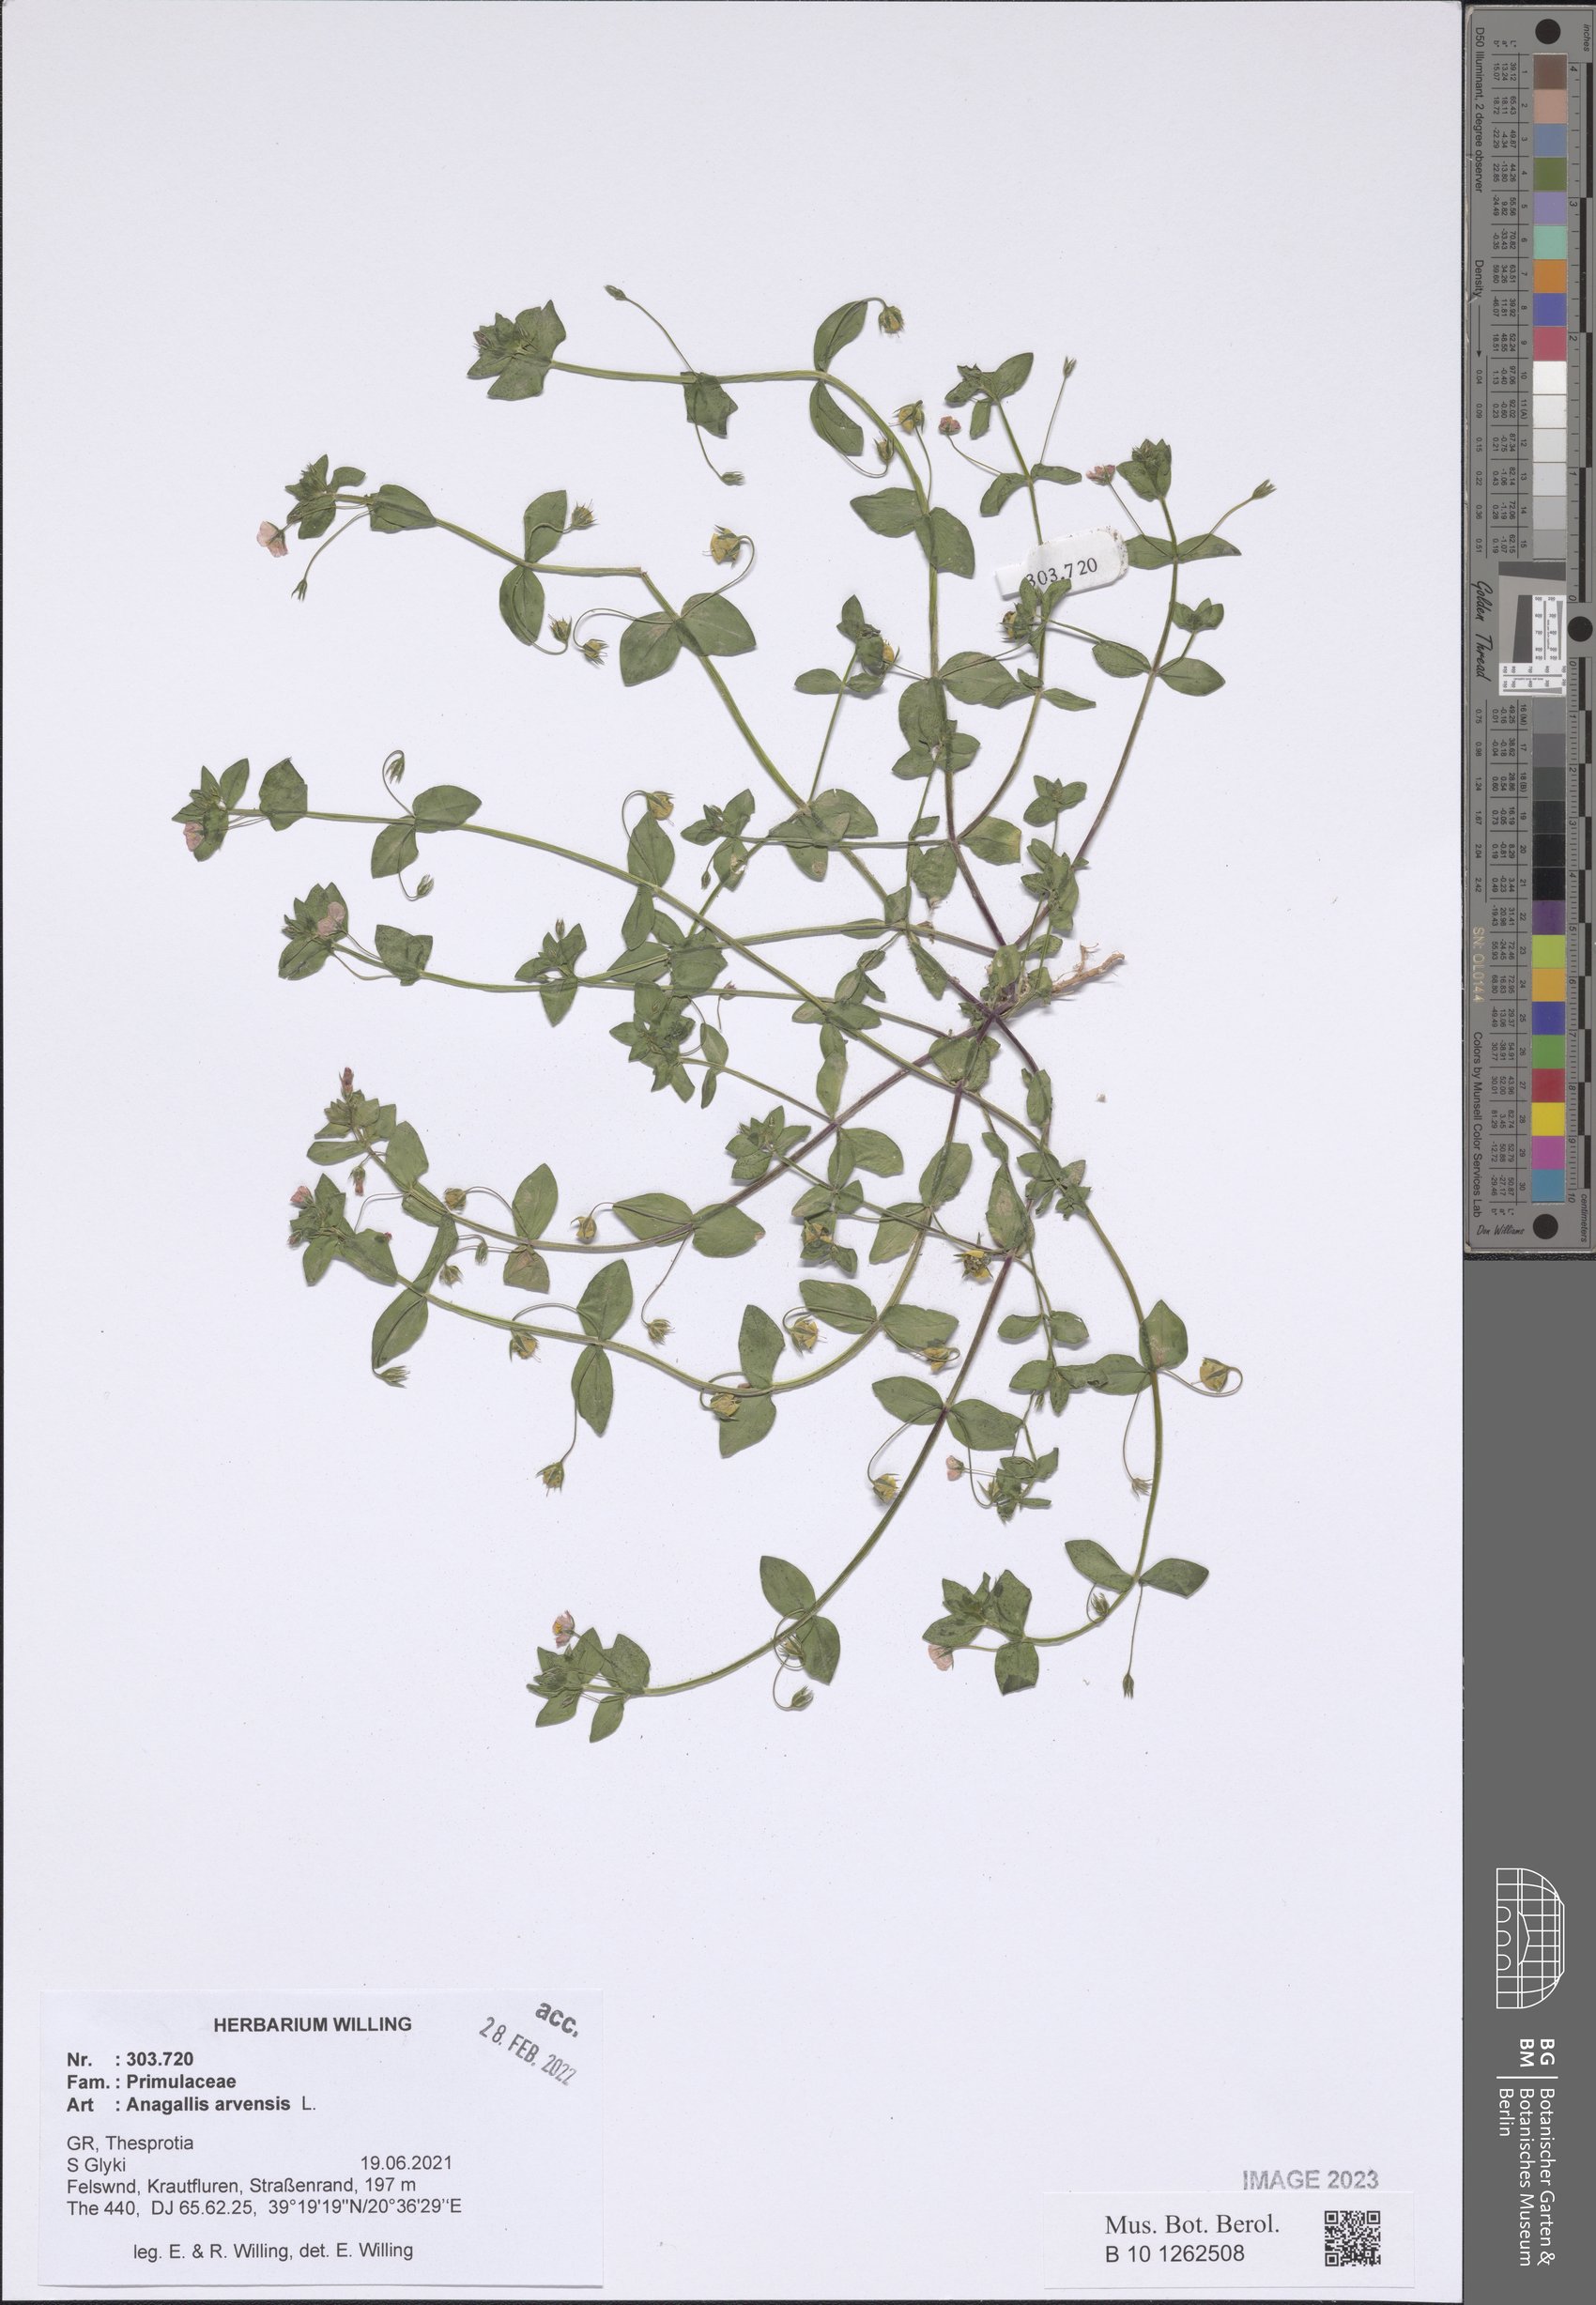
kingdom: Plantae
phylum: Tracheophyta
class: Magnoliopsida
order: Ericales
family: Primulaceae
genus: Lysimachia
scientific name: Lysimachia arvensis
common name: Scarlet pimpernel
